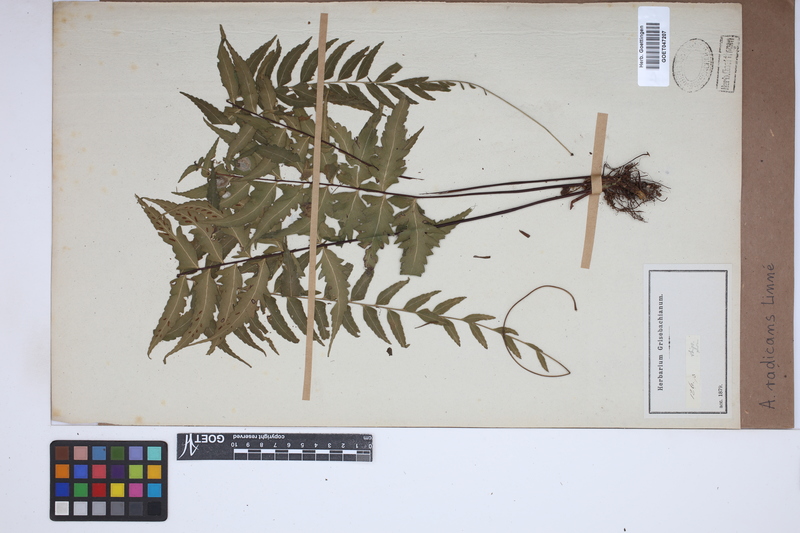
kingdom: Plantae
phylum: Tracheophyta
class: Polypodiopsida
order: Polypodiales
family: Aspleniaceae
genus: Asplenium
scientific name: Asplenium radicans
